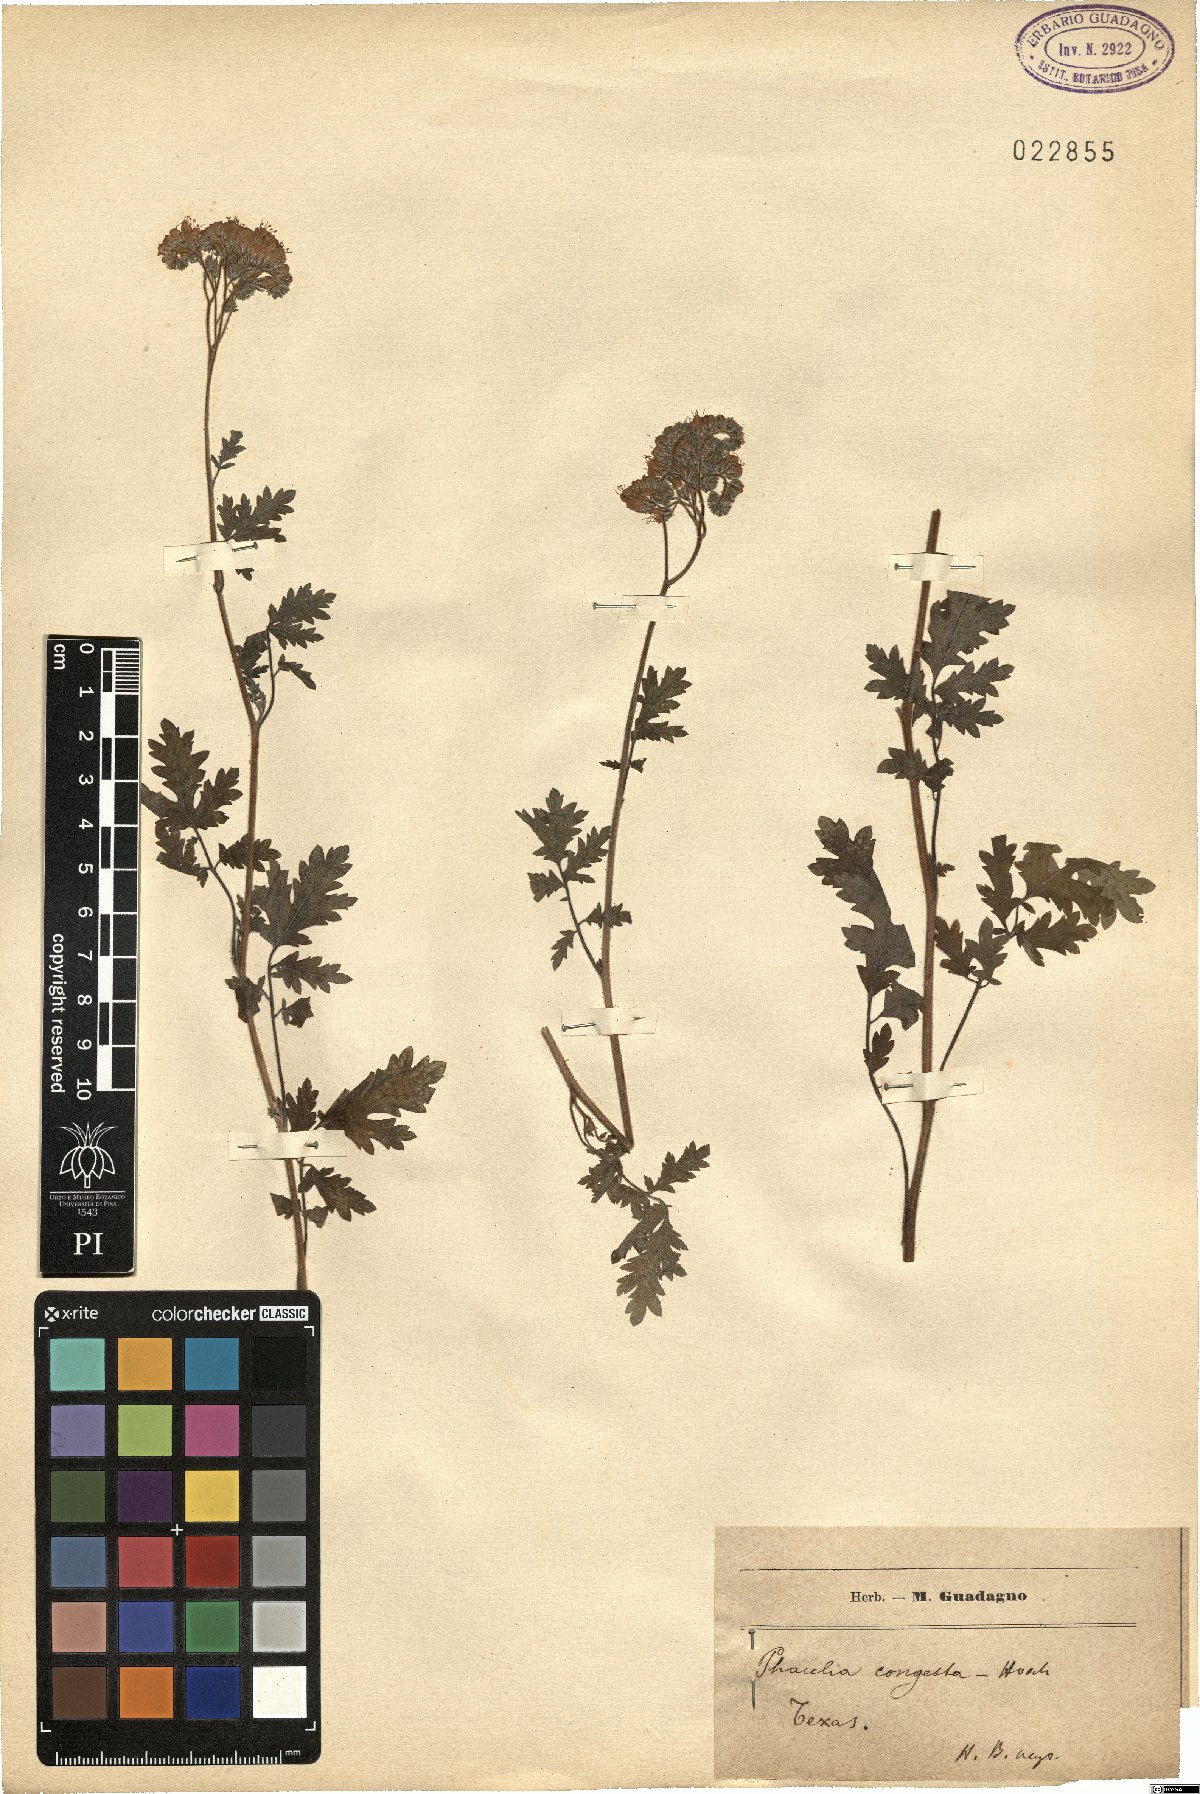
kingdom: Plantae
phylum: Tracheophyta
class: Magnoliopsida
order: Boraginales
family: Hydrophyllaceae
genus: Phacelia
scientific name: Phacelia congesta
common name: Blue curls
